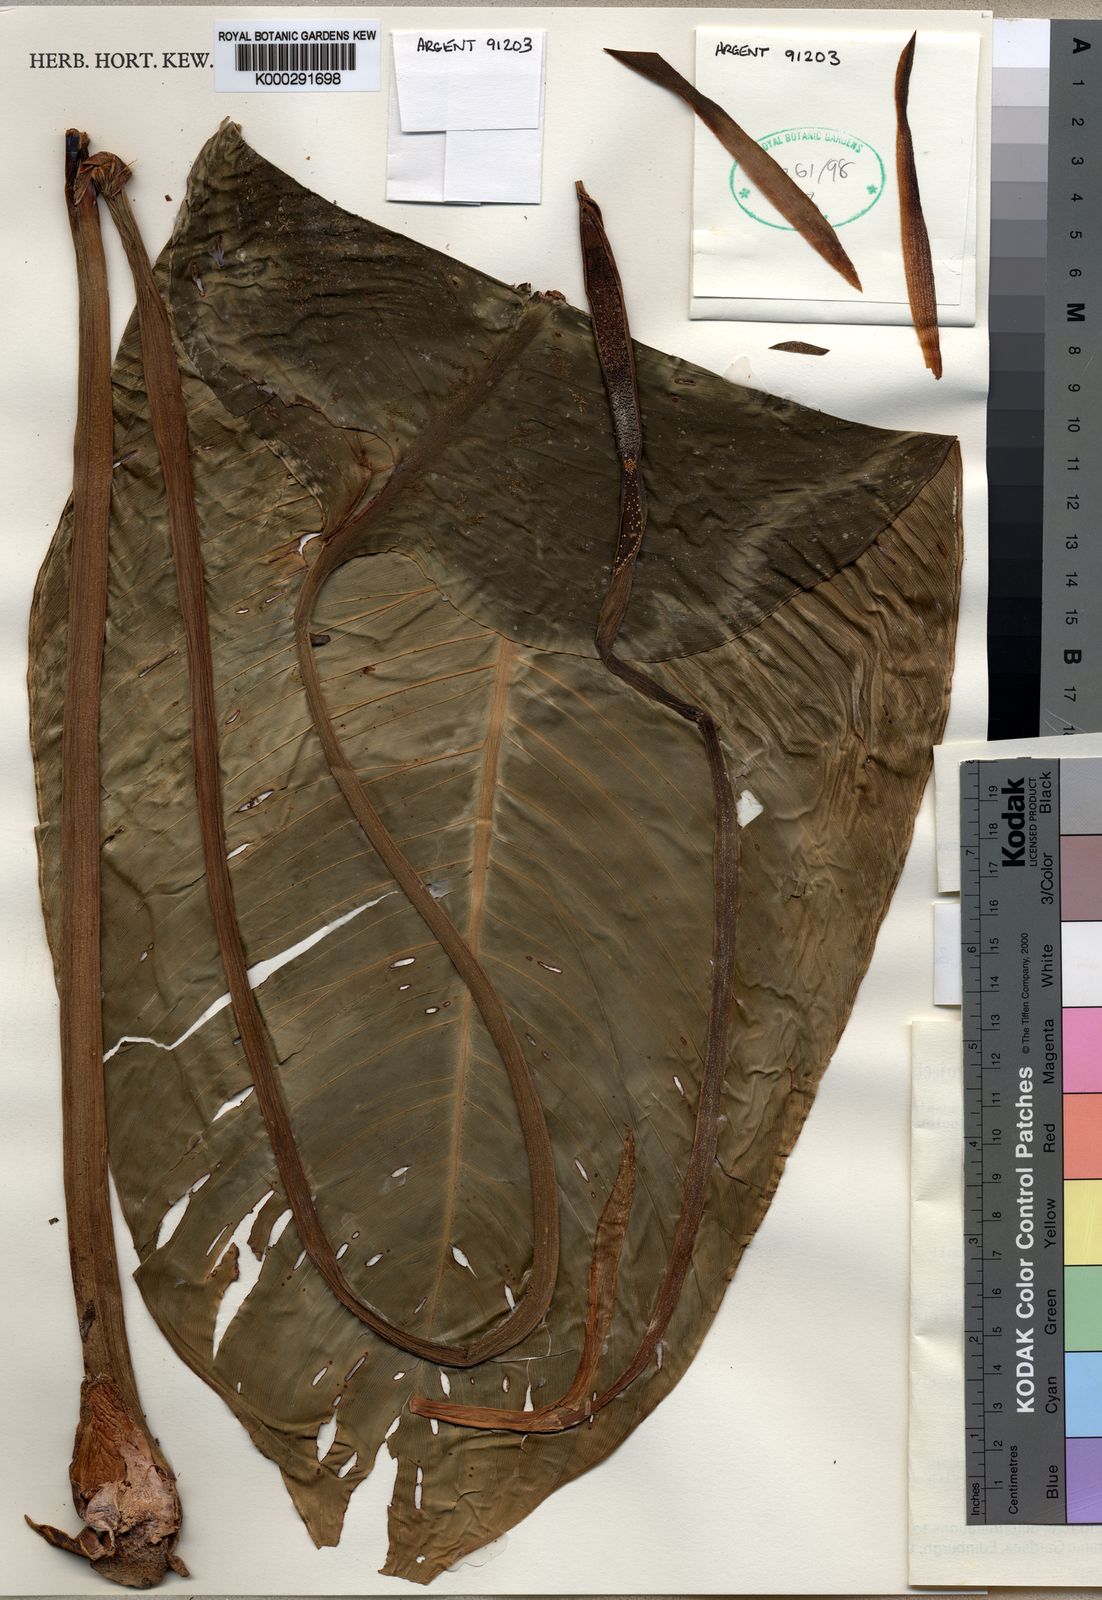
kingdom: Plantae
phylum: Tracheophyta
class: Liliopsida
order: Alismatales
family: Araceae
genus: Schismatoglottis
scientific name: Schismatoglottis cyria
